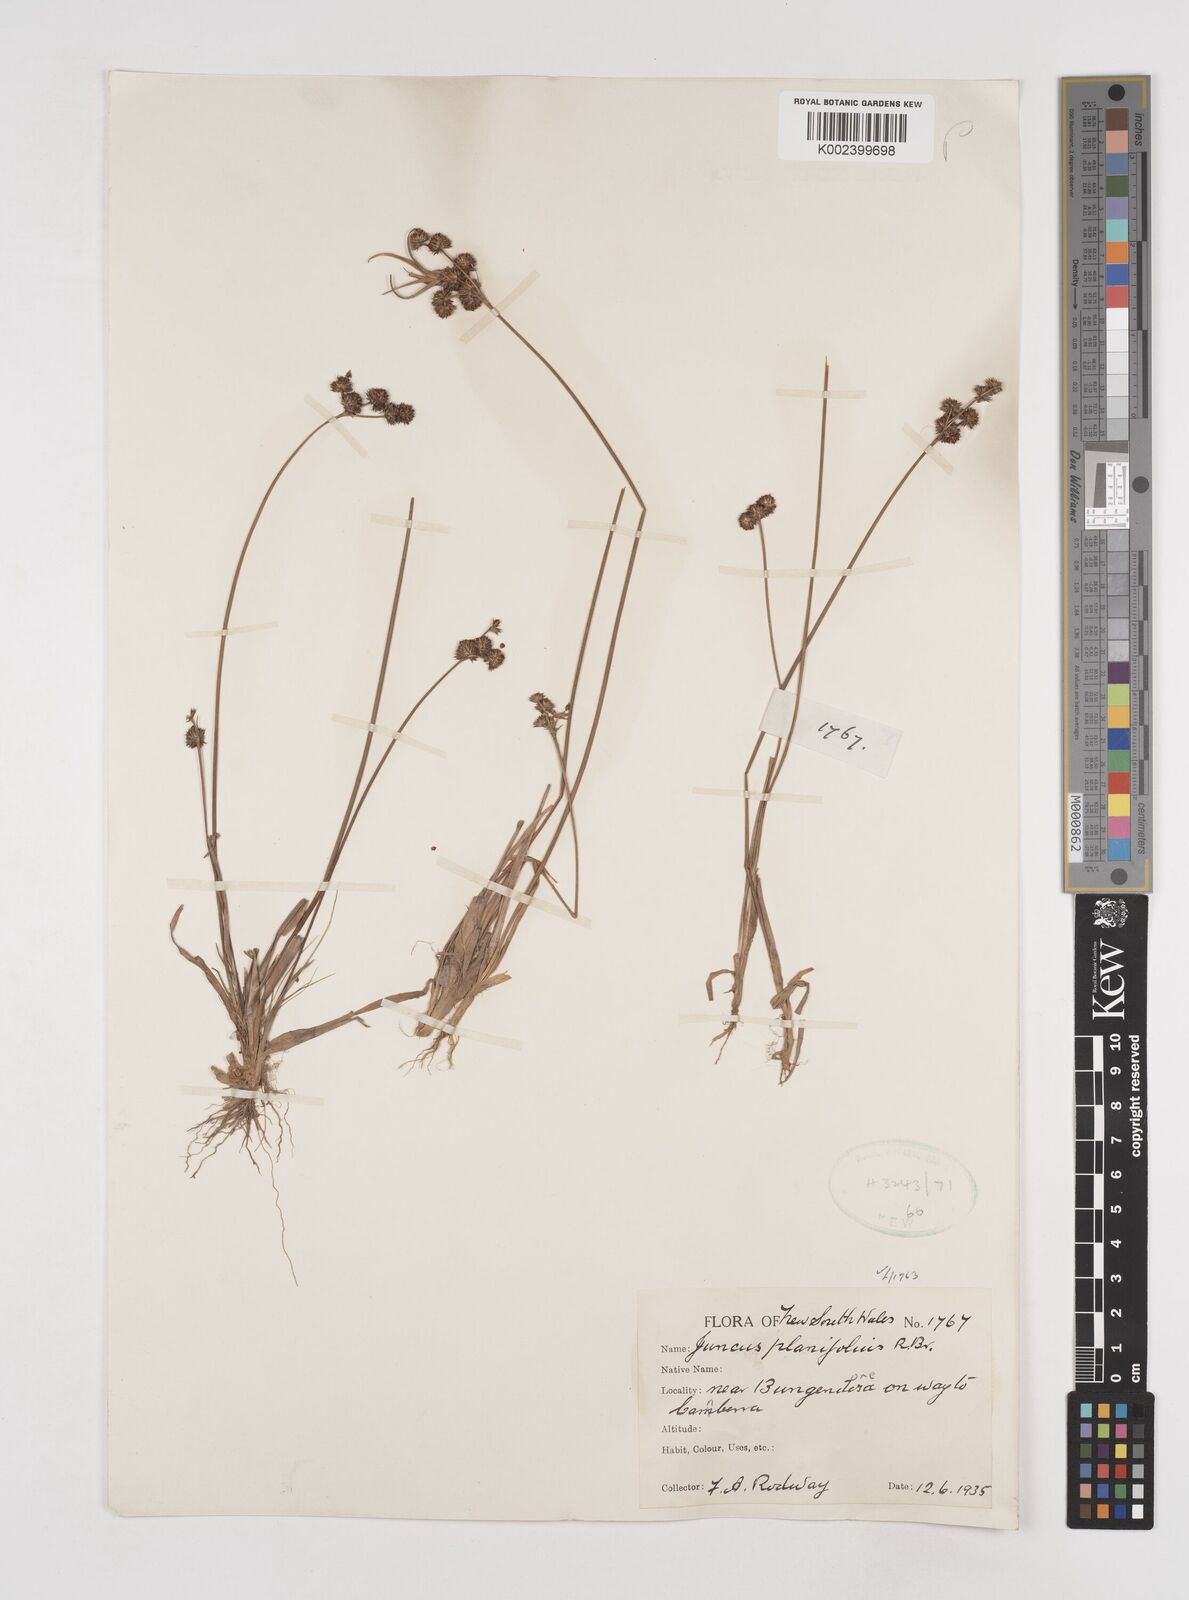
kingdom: Plantae
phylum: Tracheophyta
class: Liliopsida
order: Poales
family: Juncaceae
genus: Juncus
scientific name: Juncus planifolius
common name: Broadleaf rush
